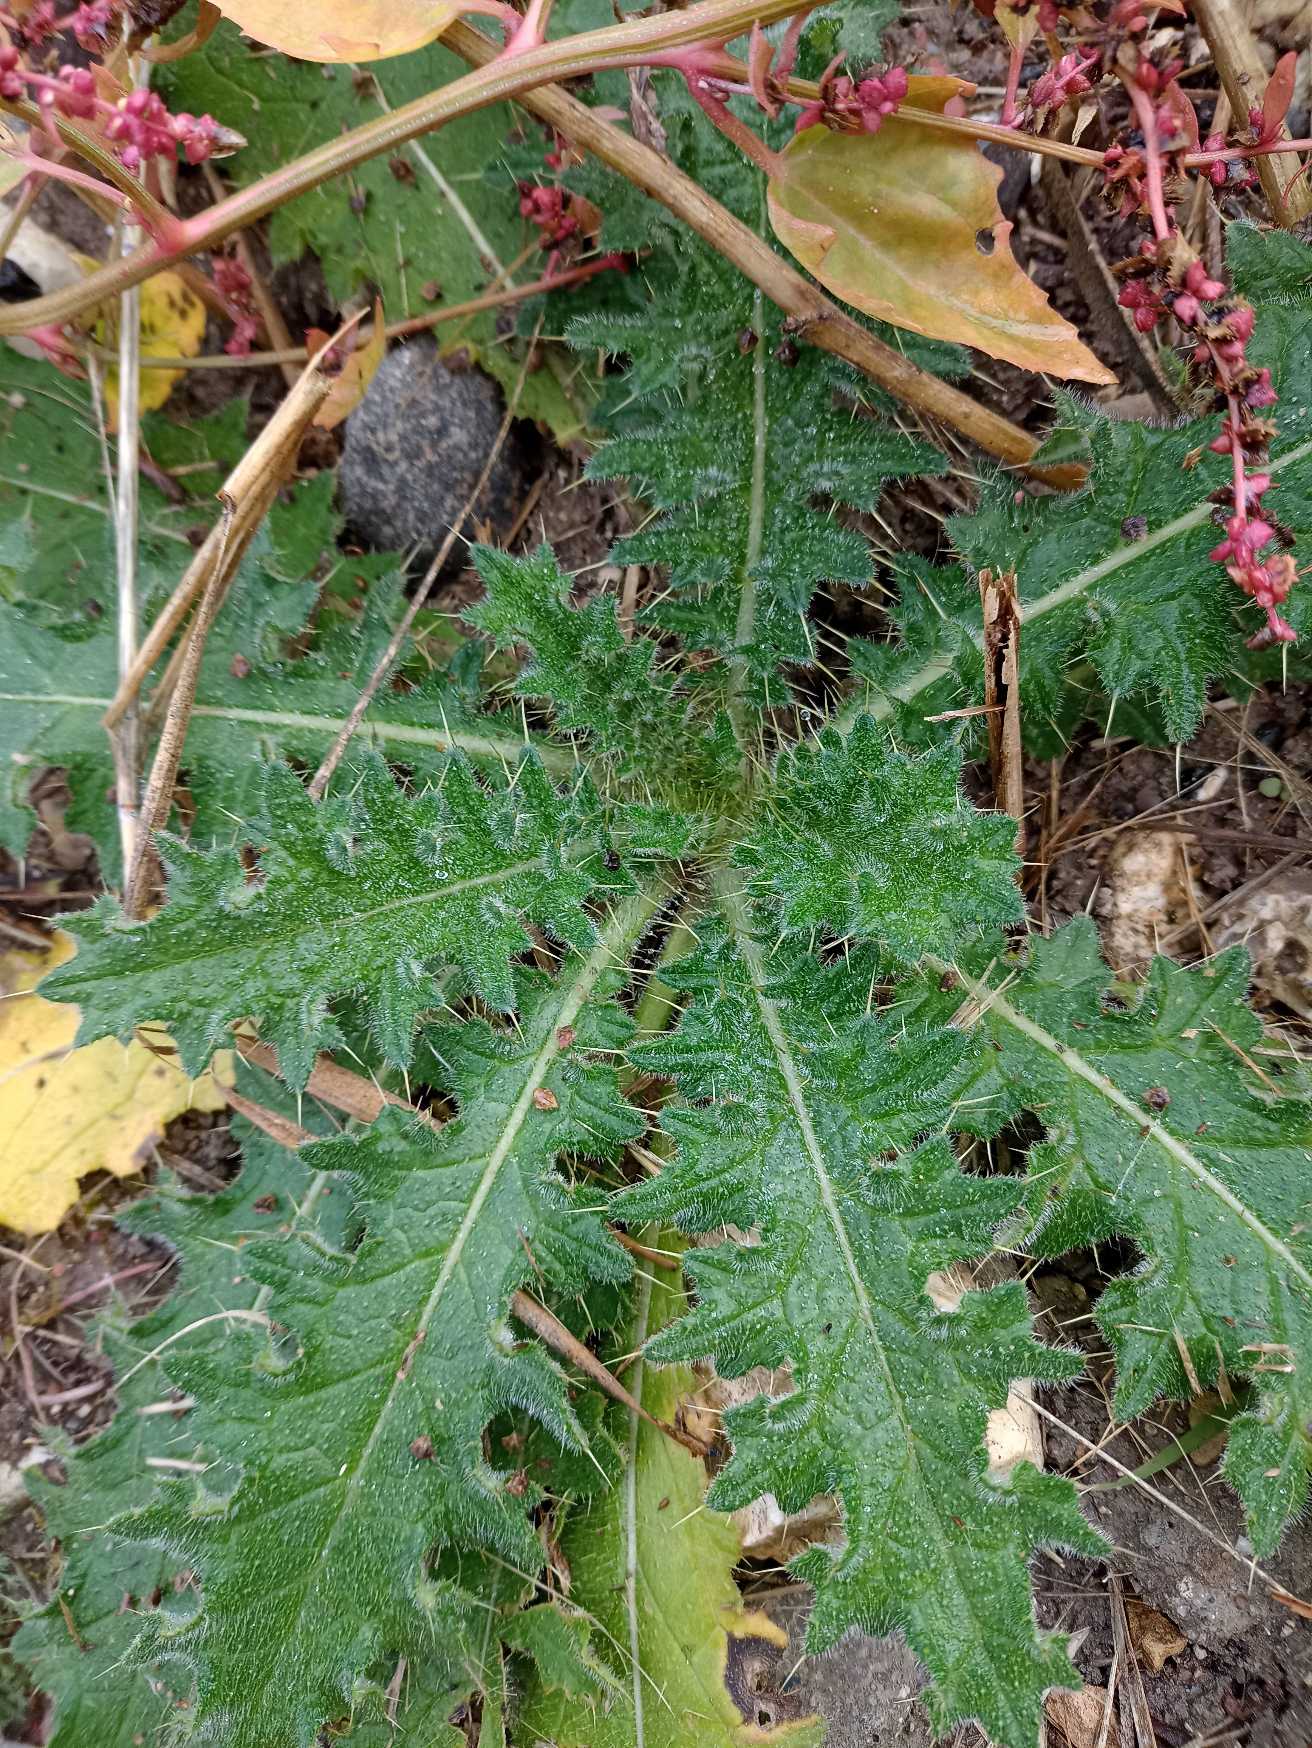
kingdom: Plantae
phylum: Tracheophyta
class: Magnoliopsida
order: Asterales
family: Asteraceae
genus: Cirsium
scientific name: Cirsium vulgare
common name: Horse-tidsel
